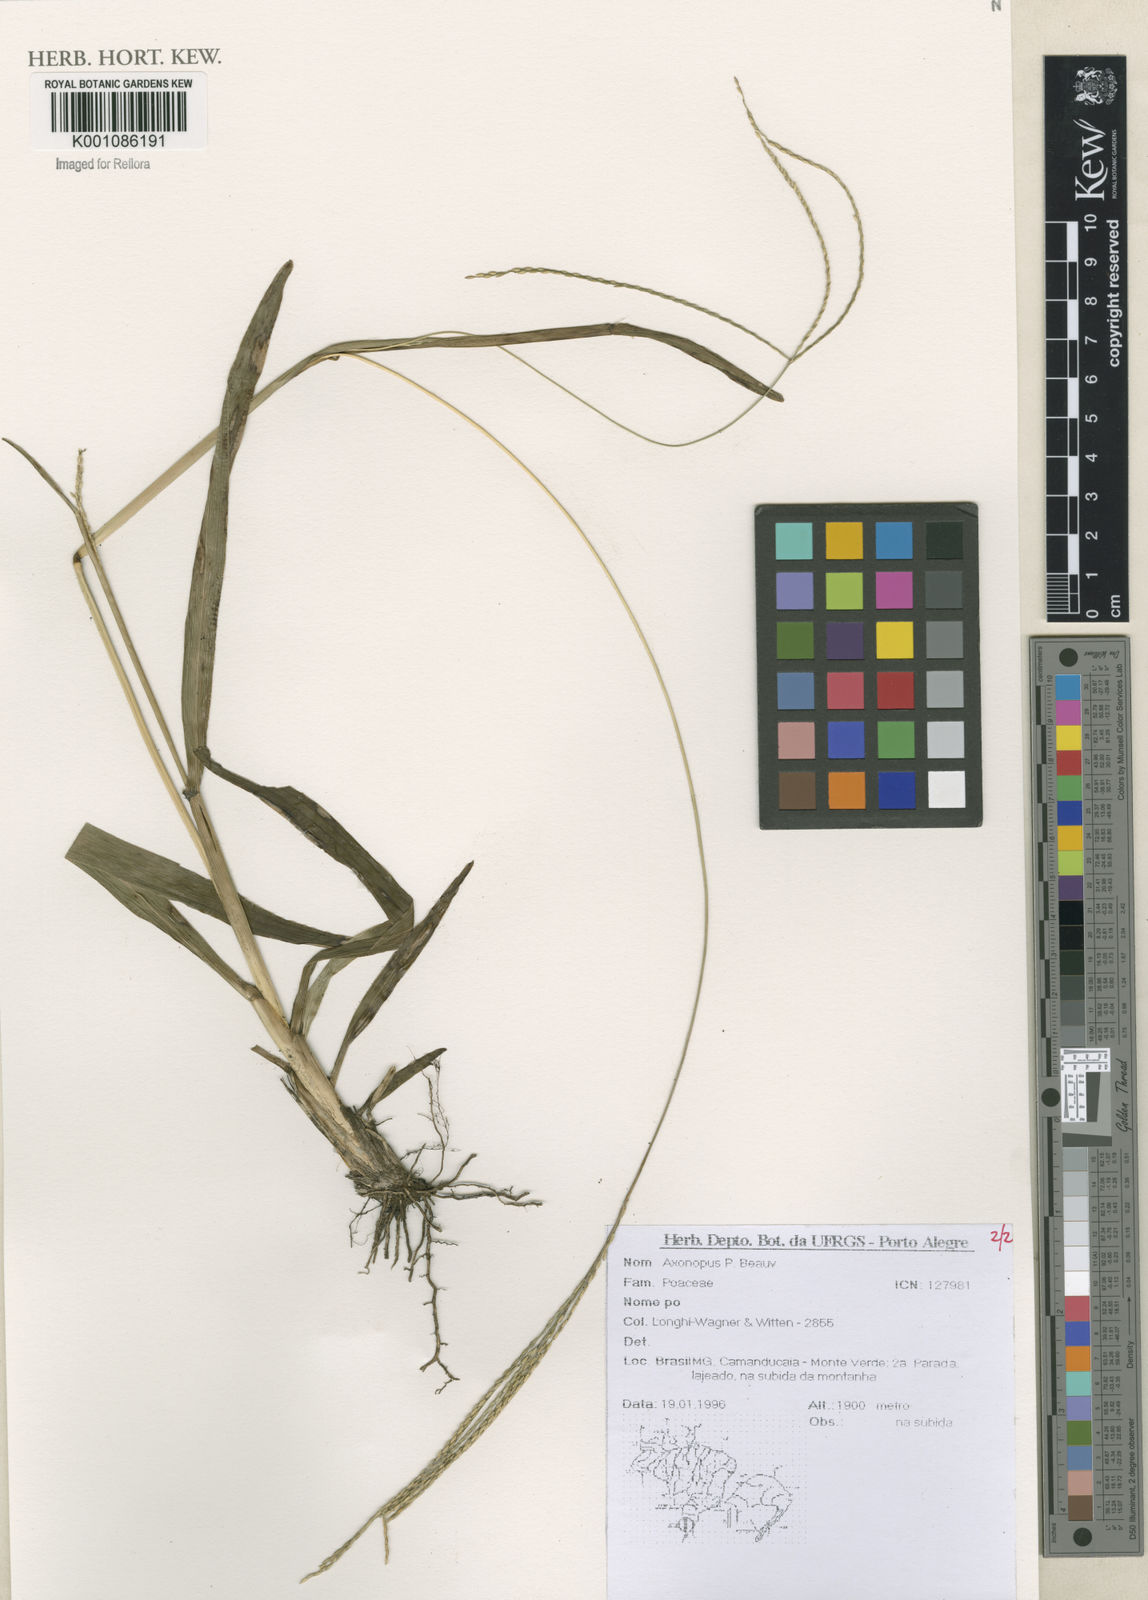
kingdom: Plantae
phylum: Tracheophyta
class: Liliopsida
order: Poales
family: Poaceae
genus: Axonopus
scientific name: Axonopus
